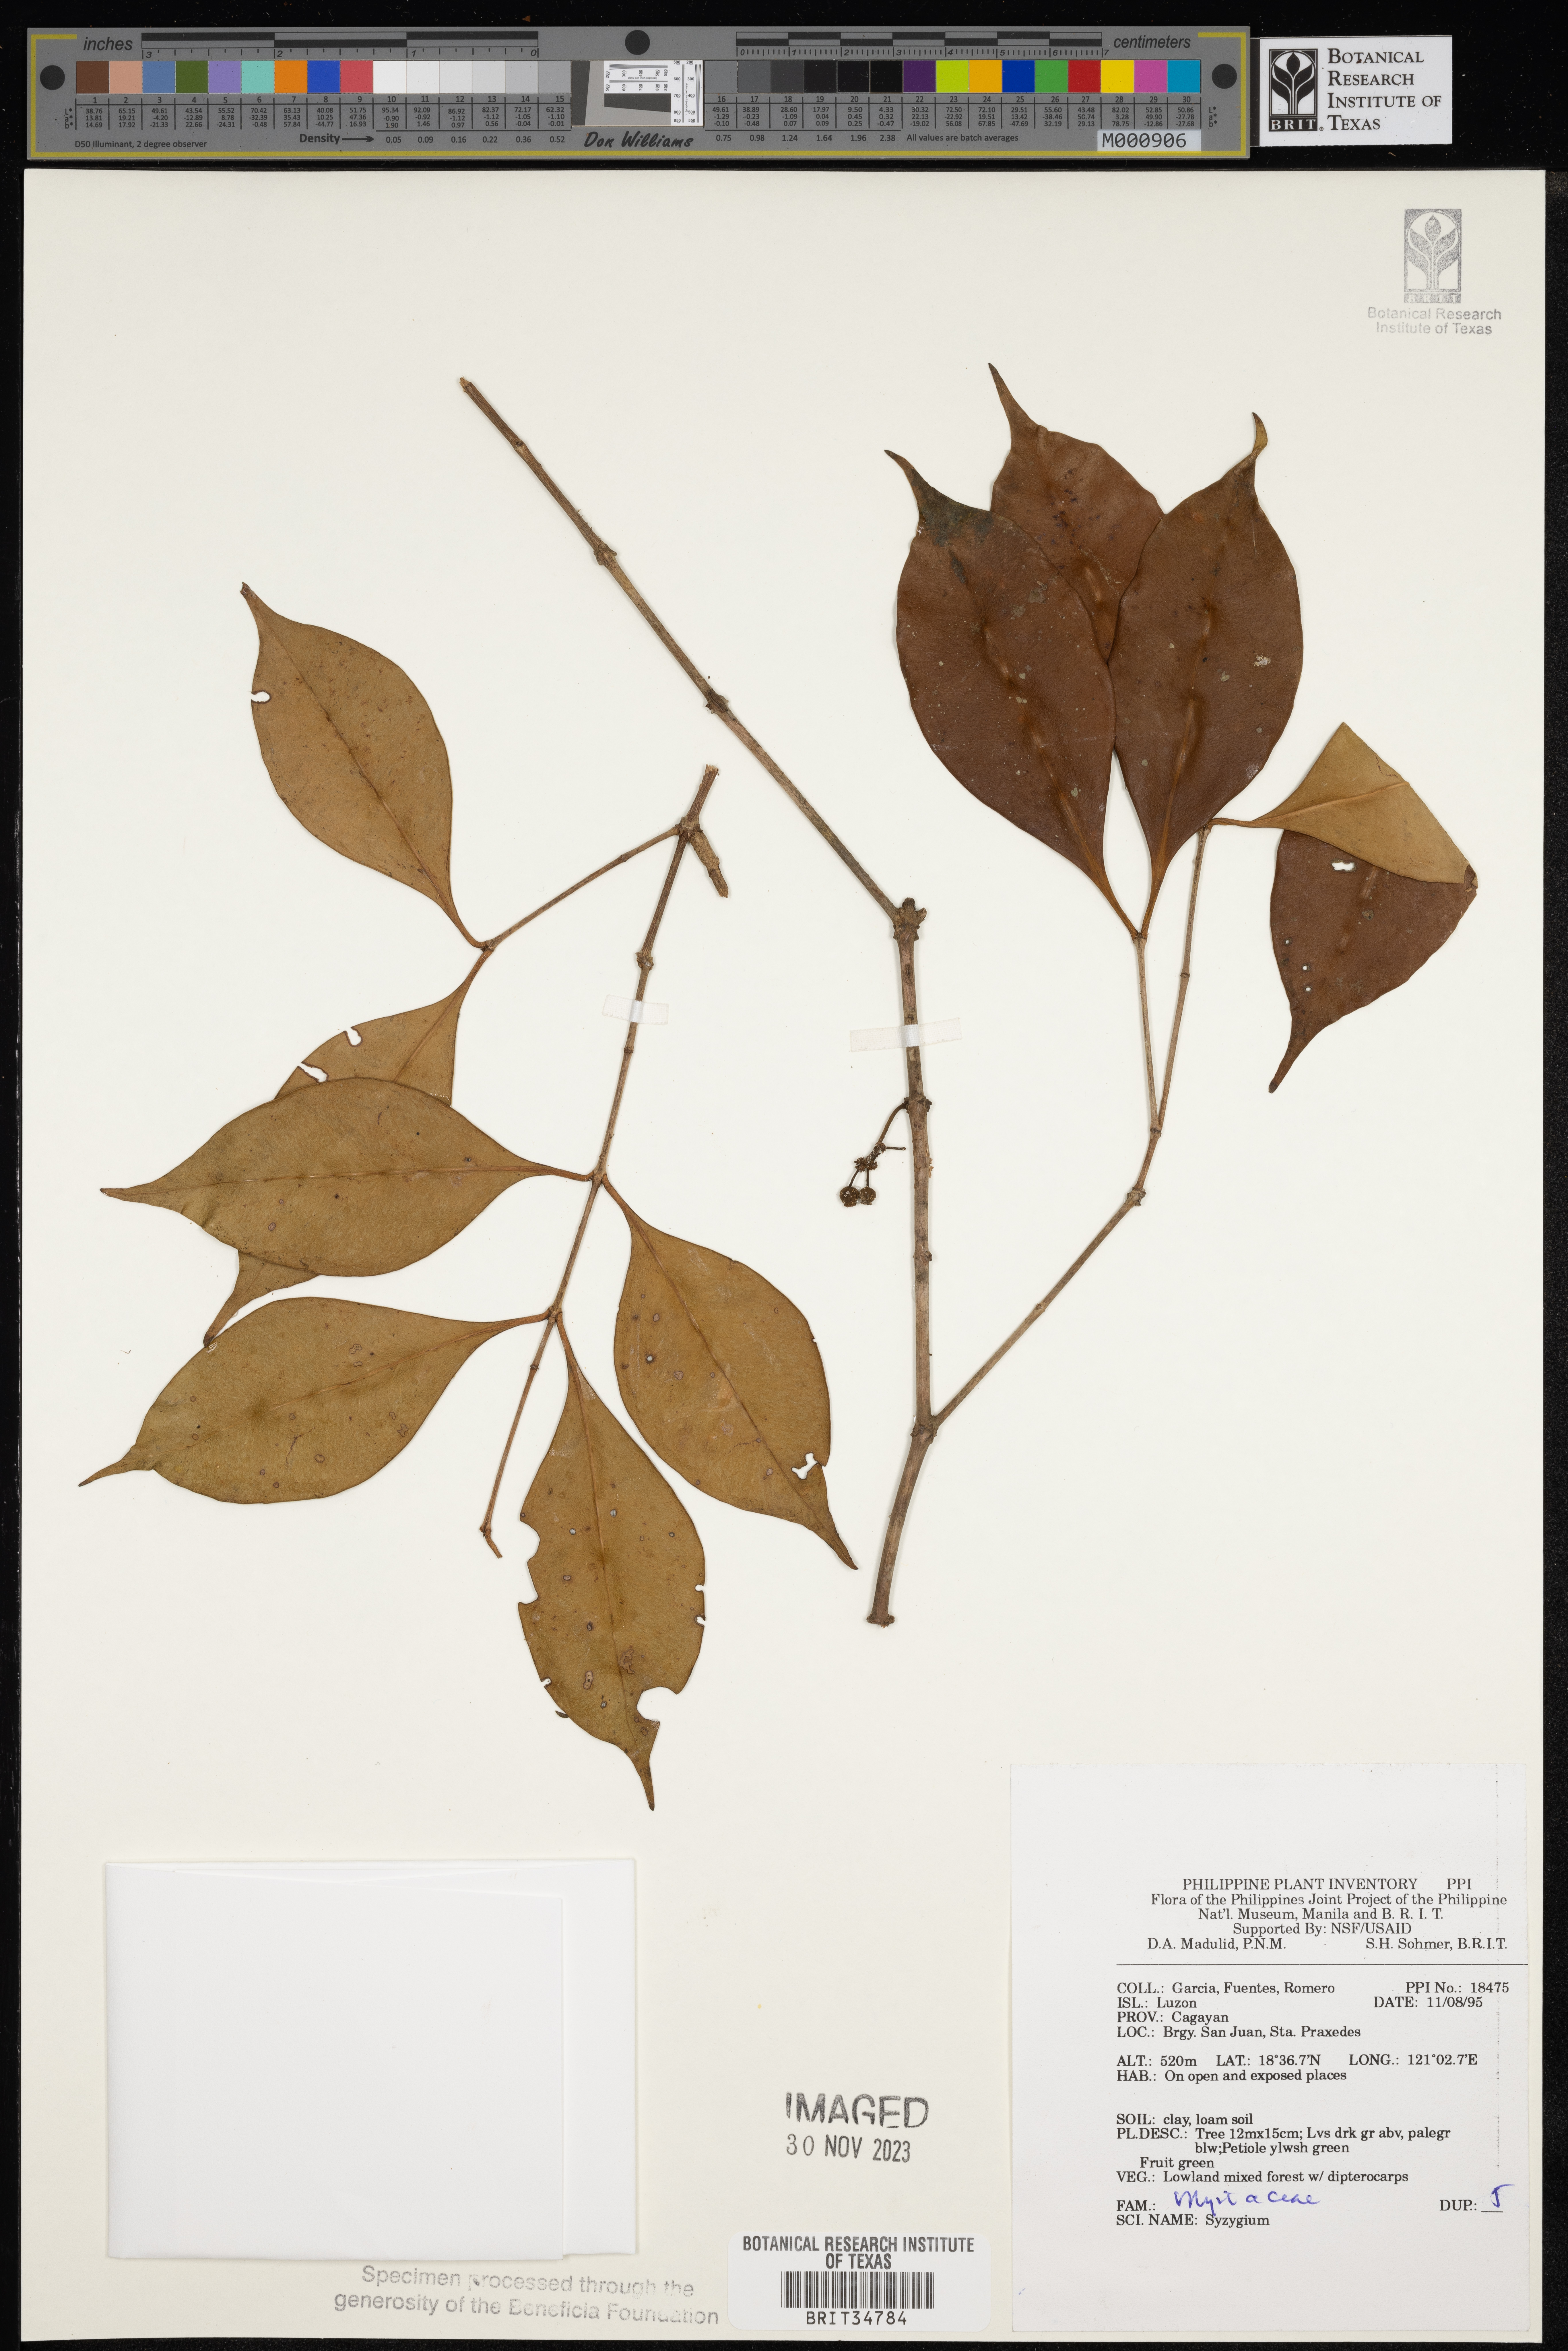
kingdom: Plantae
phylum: Tracheophyta
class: Magnoliopsida
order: Myrtales
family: Myrtaceae
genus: Syzygium
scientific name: Syzygium
